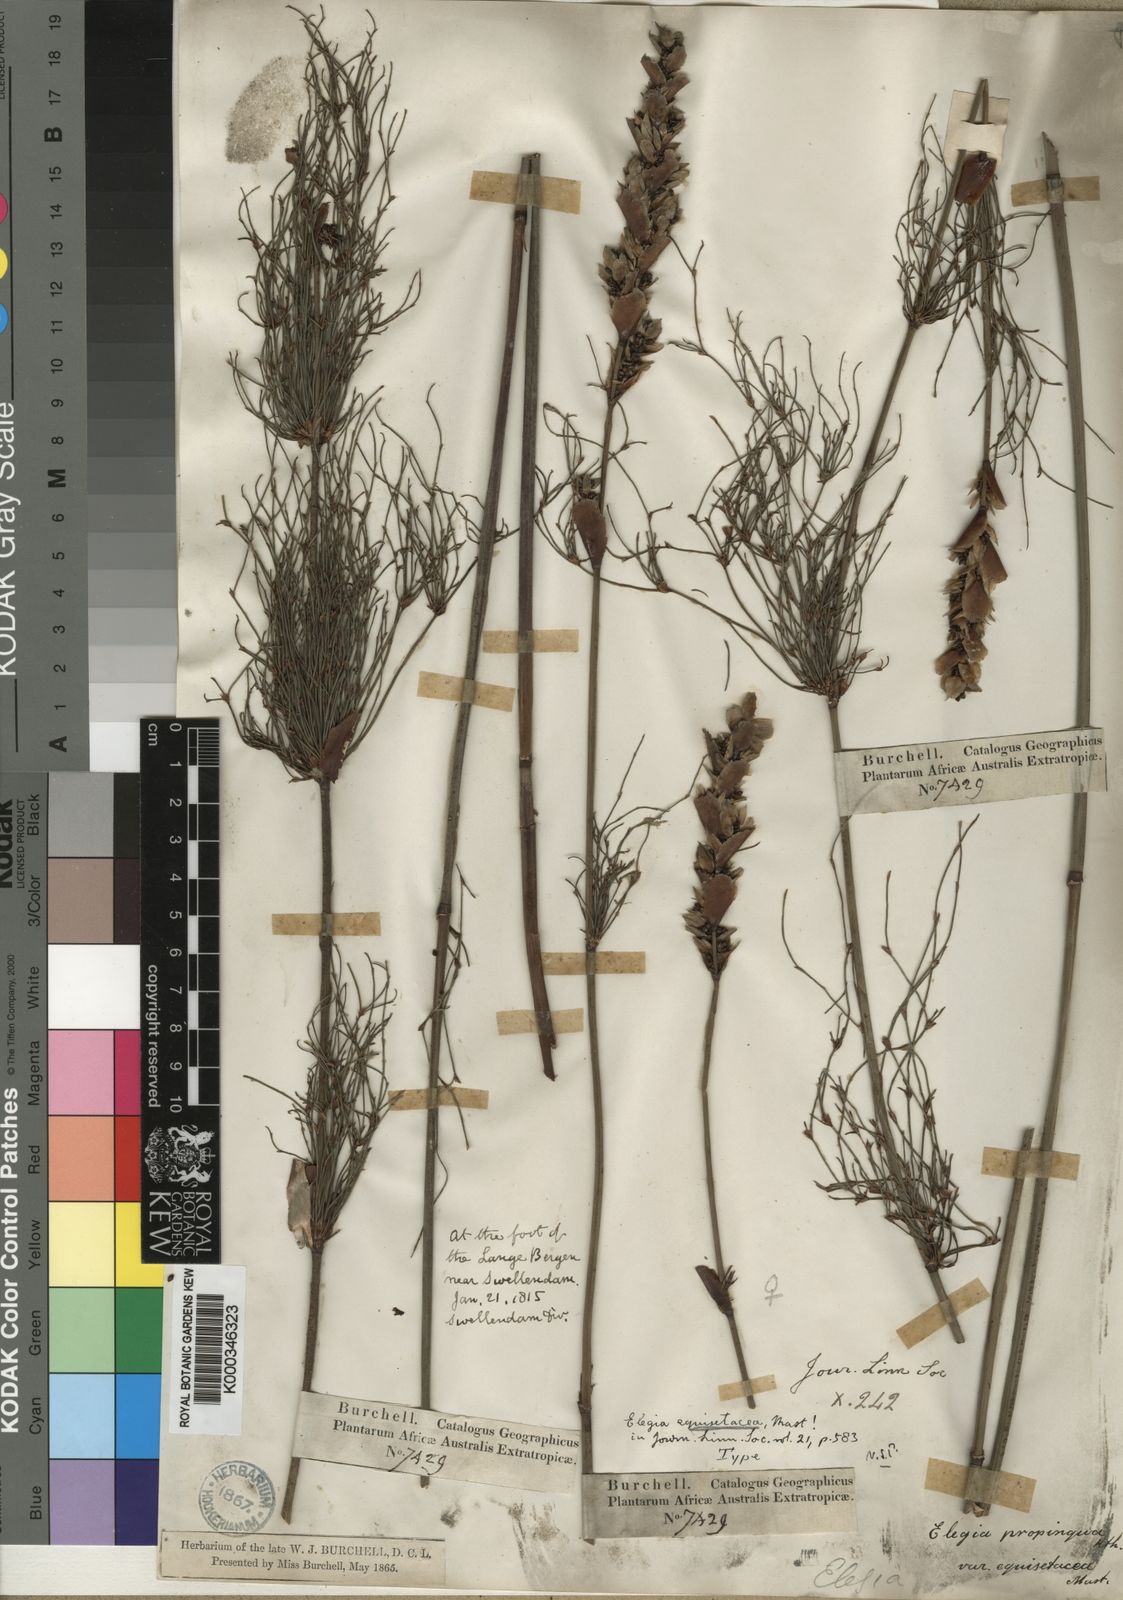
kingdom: Plantae
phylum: Tracheophyta
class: Liliopsida
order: Poales
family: Restionaceae
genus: Elegia
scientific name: Elegia equisetacea
